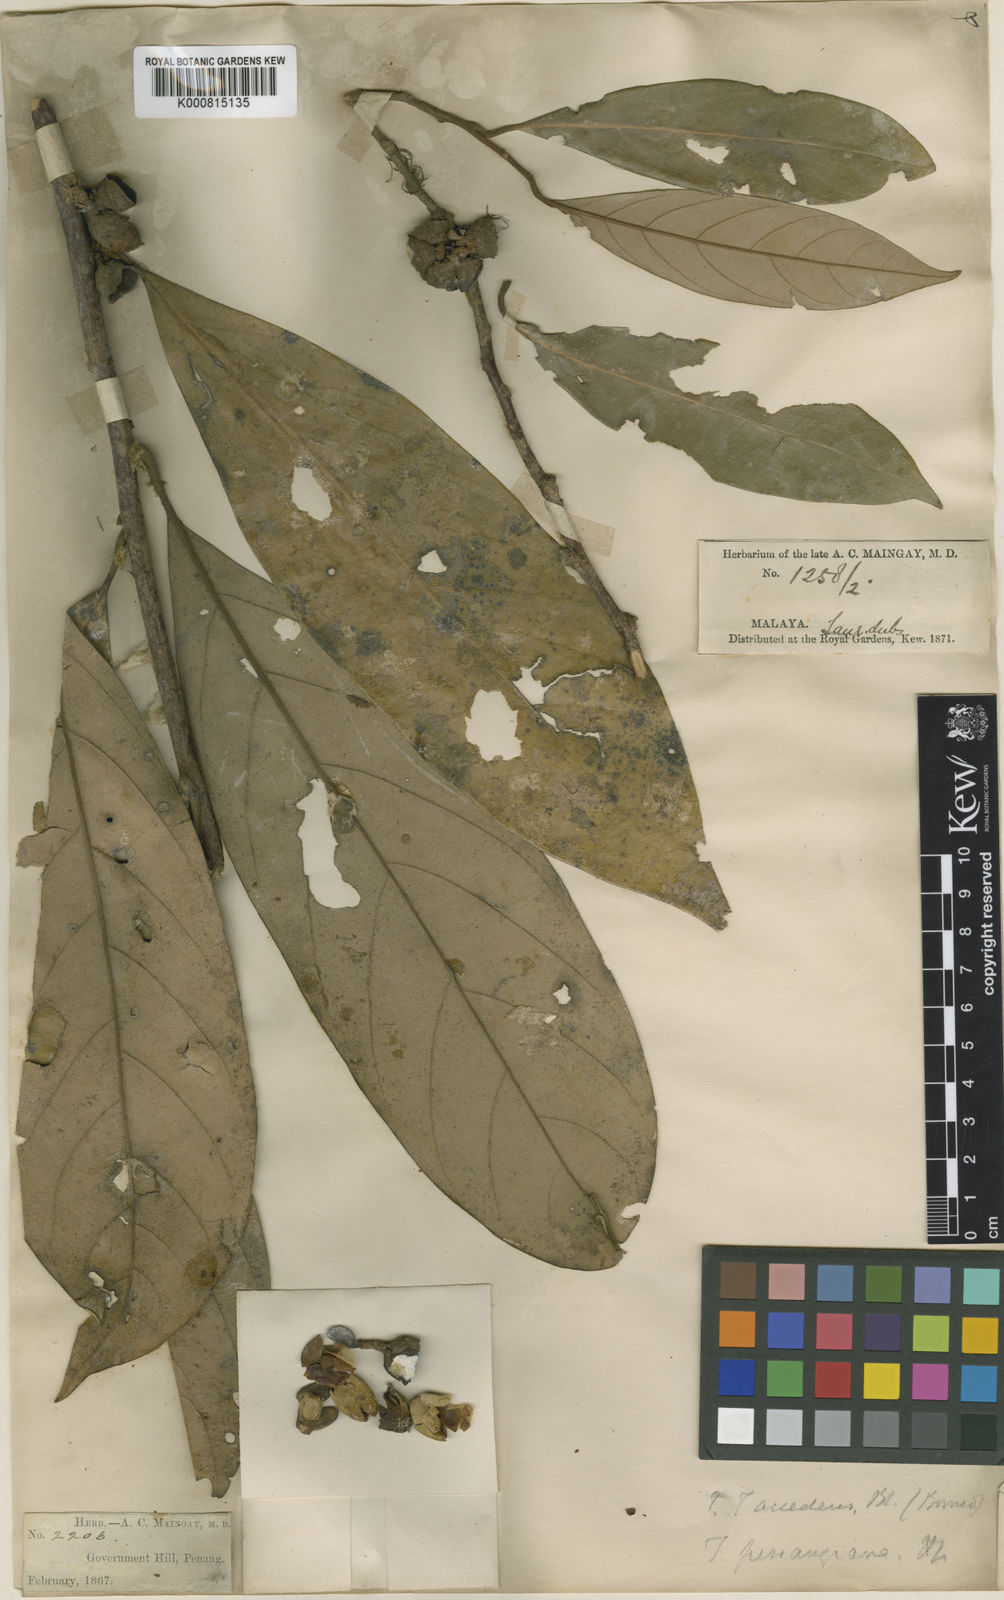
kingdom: Plantae
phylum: Tracheophyta
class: Magnoliopsida
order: Laurales
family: Lauraceae
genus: Litsea
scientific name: Litsea penangiana
